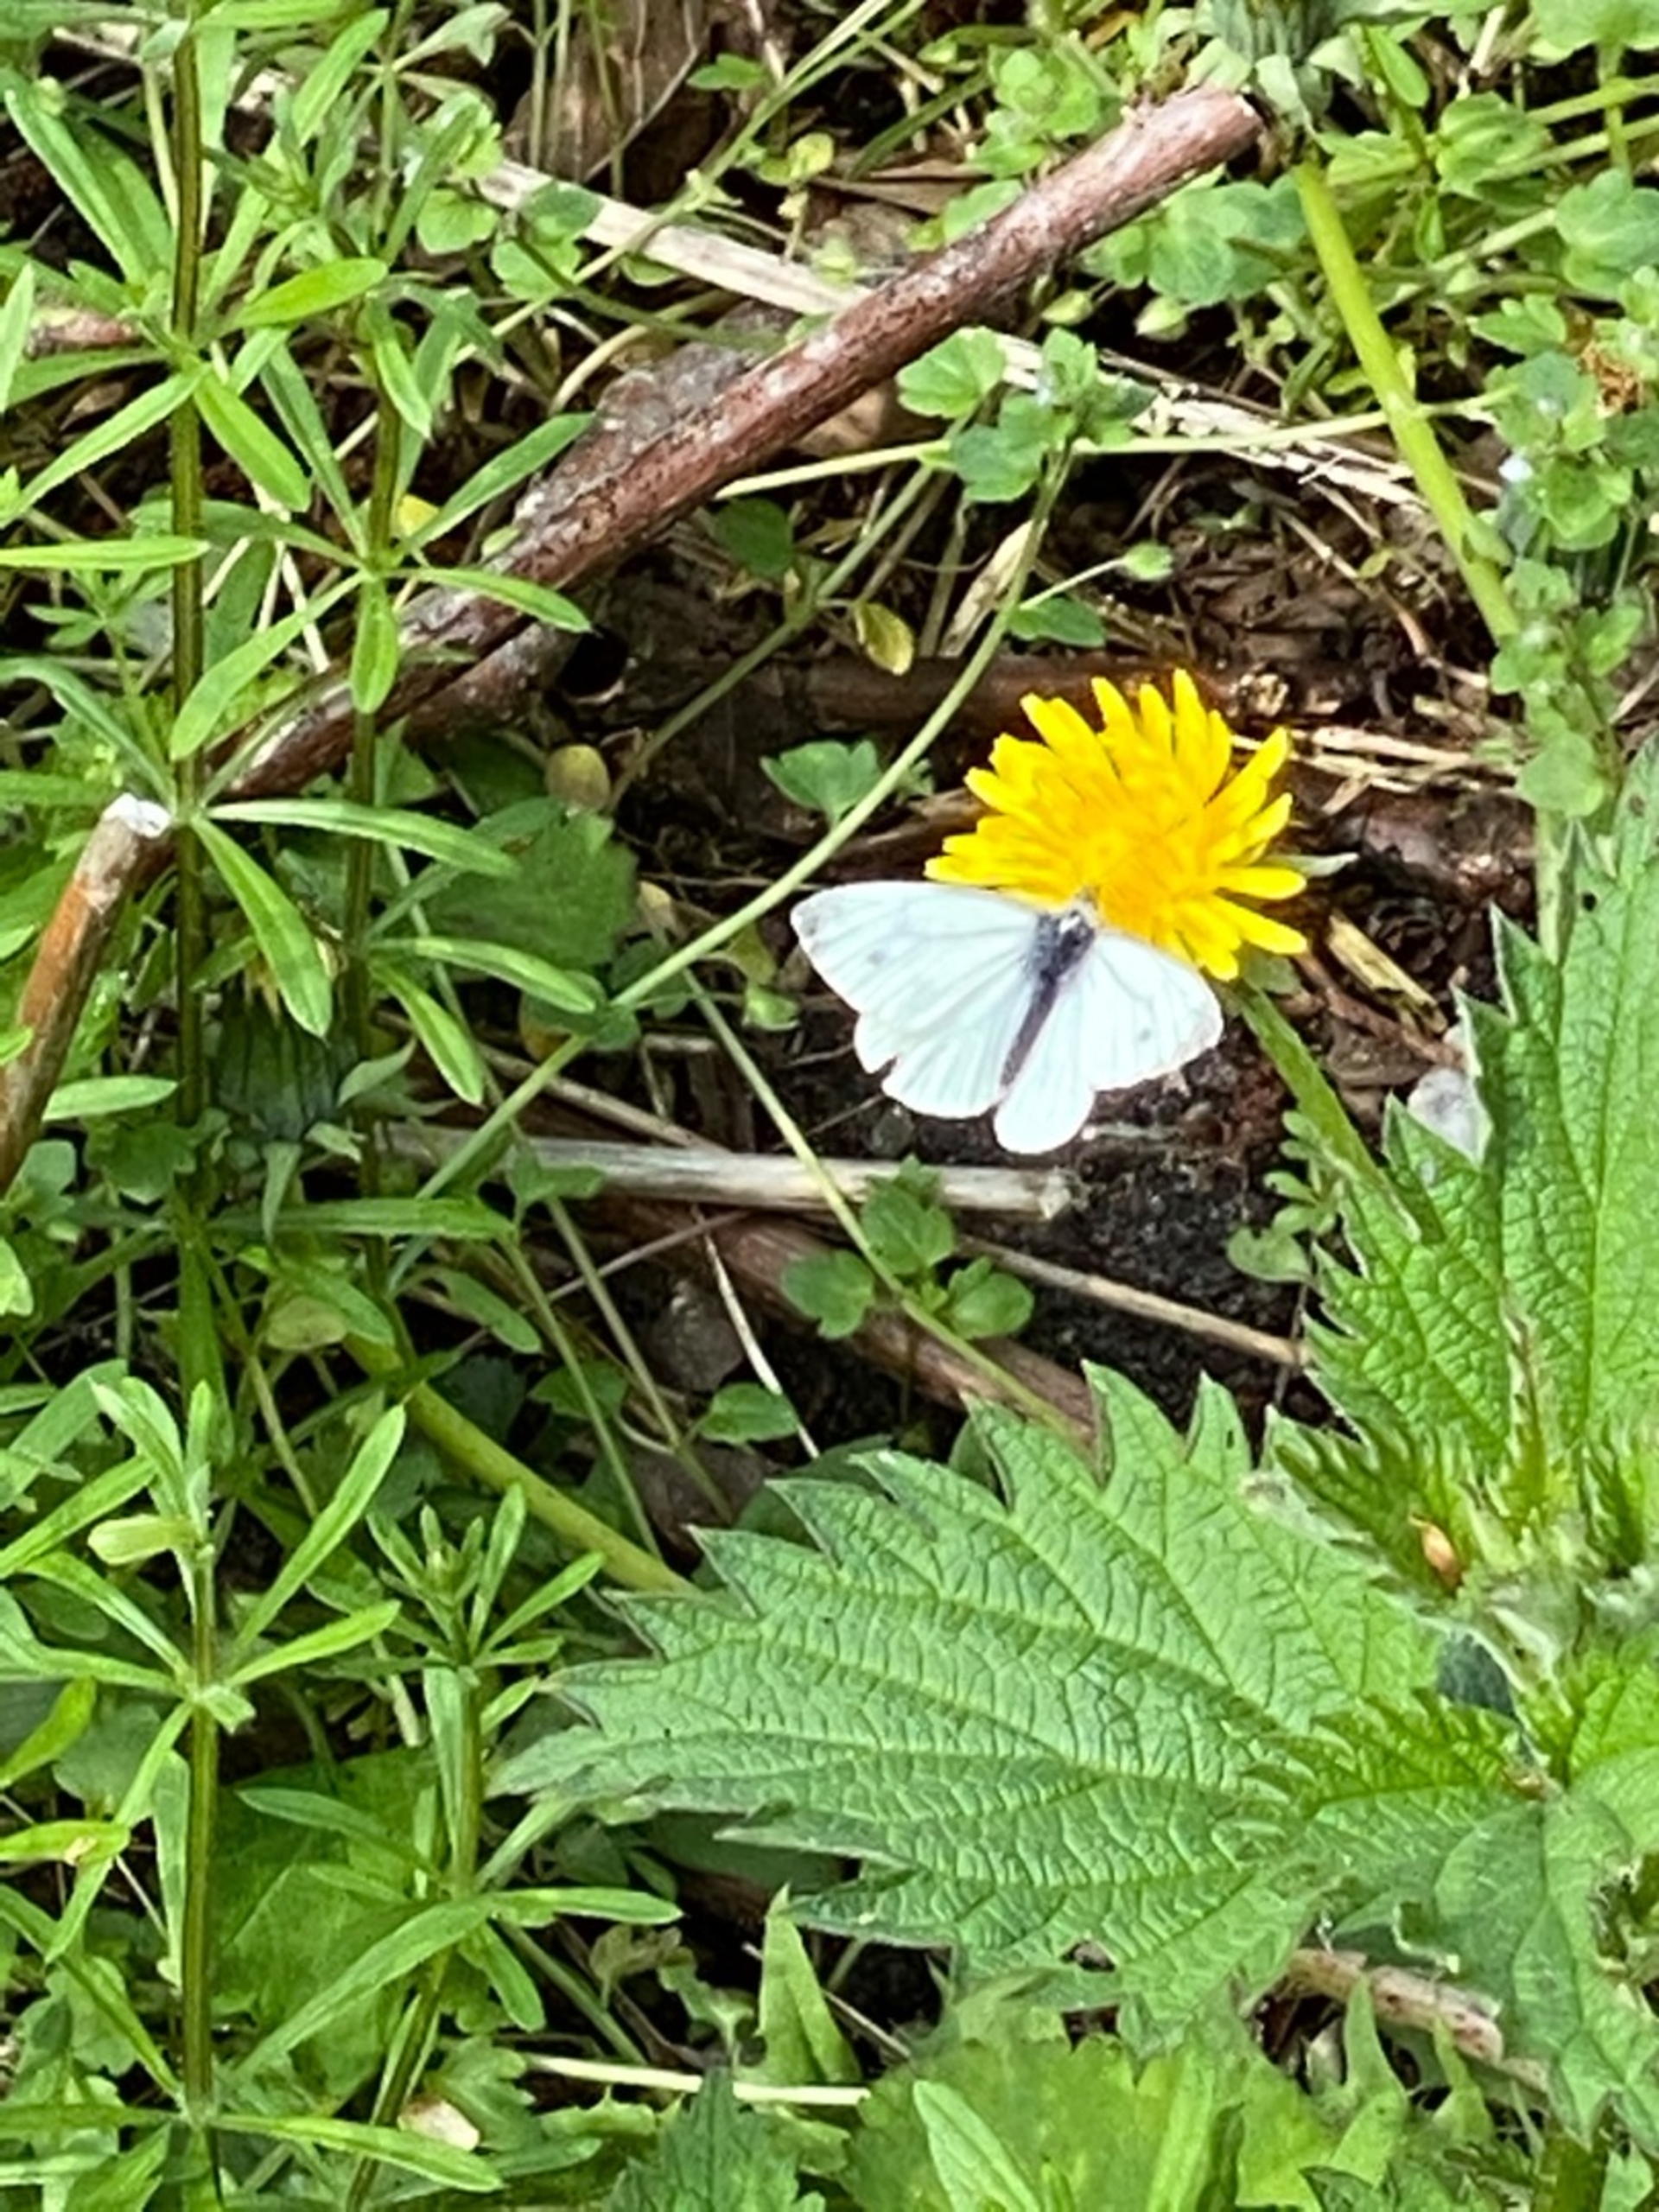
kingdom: Animalia
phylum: Arthropoda
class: Insecta
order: Lepidoptera
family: Pieridae
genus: Pieris
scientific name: Pieris rapae
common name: Lille kålsommerfugl
